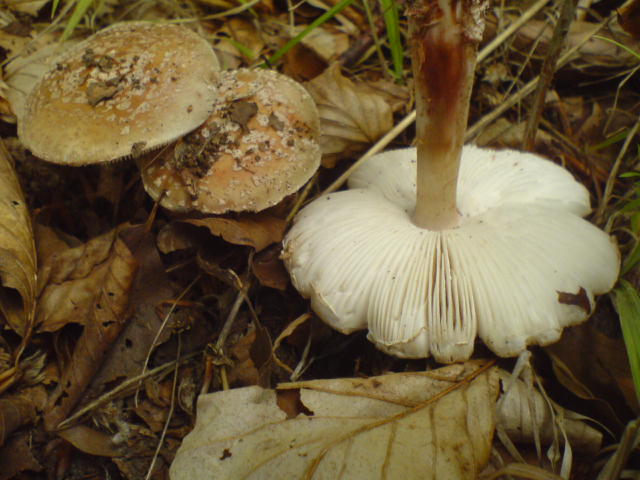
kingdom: Fungi
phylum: Basidiomycota
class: Agaricomycetes
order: Agaricales
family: Amanitaceae
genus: Amanita
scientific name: Amanita rubescens
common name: rødmende fluesvamp
